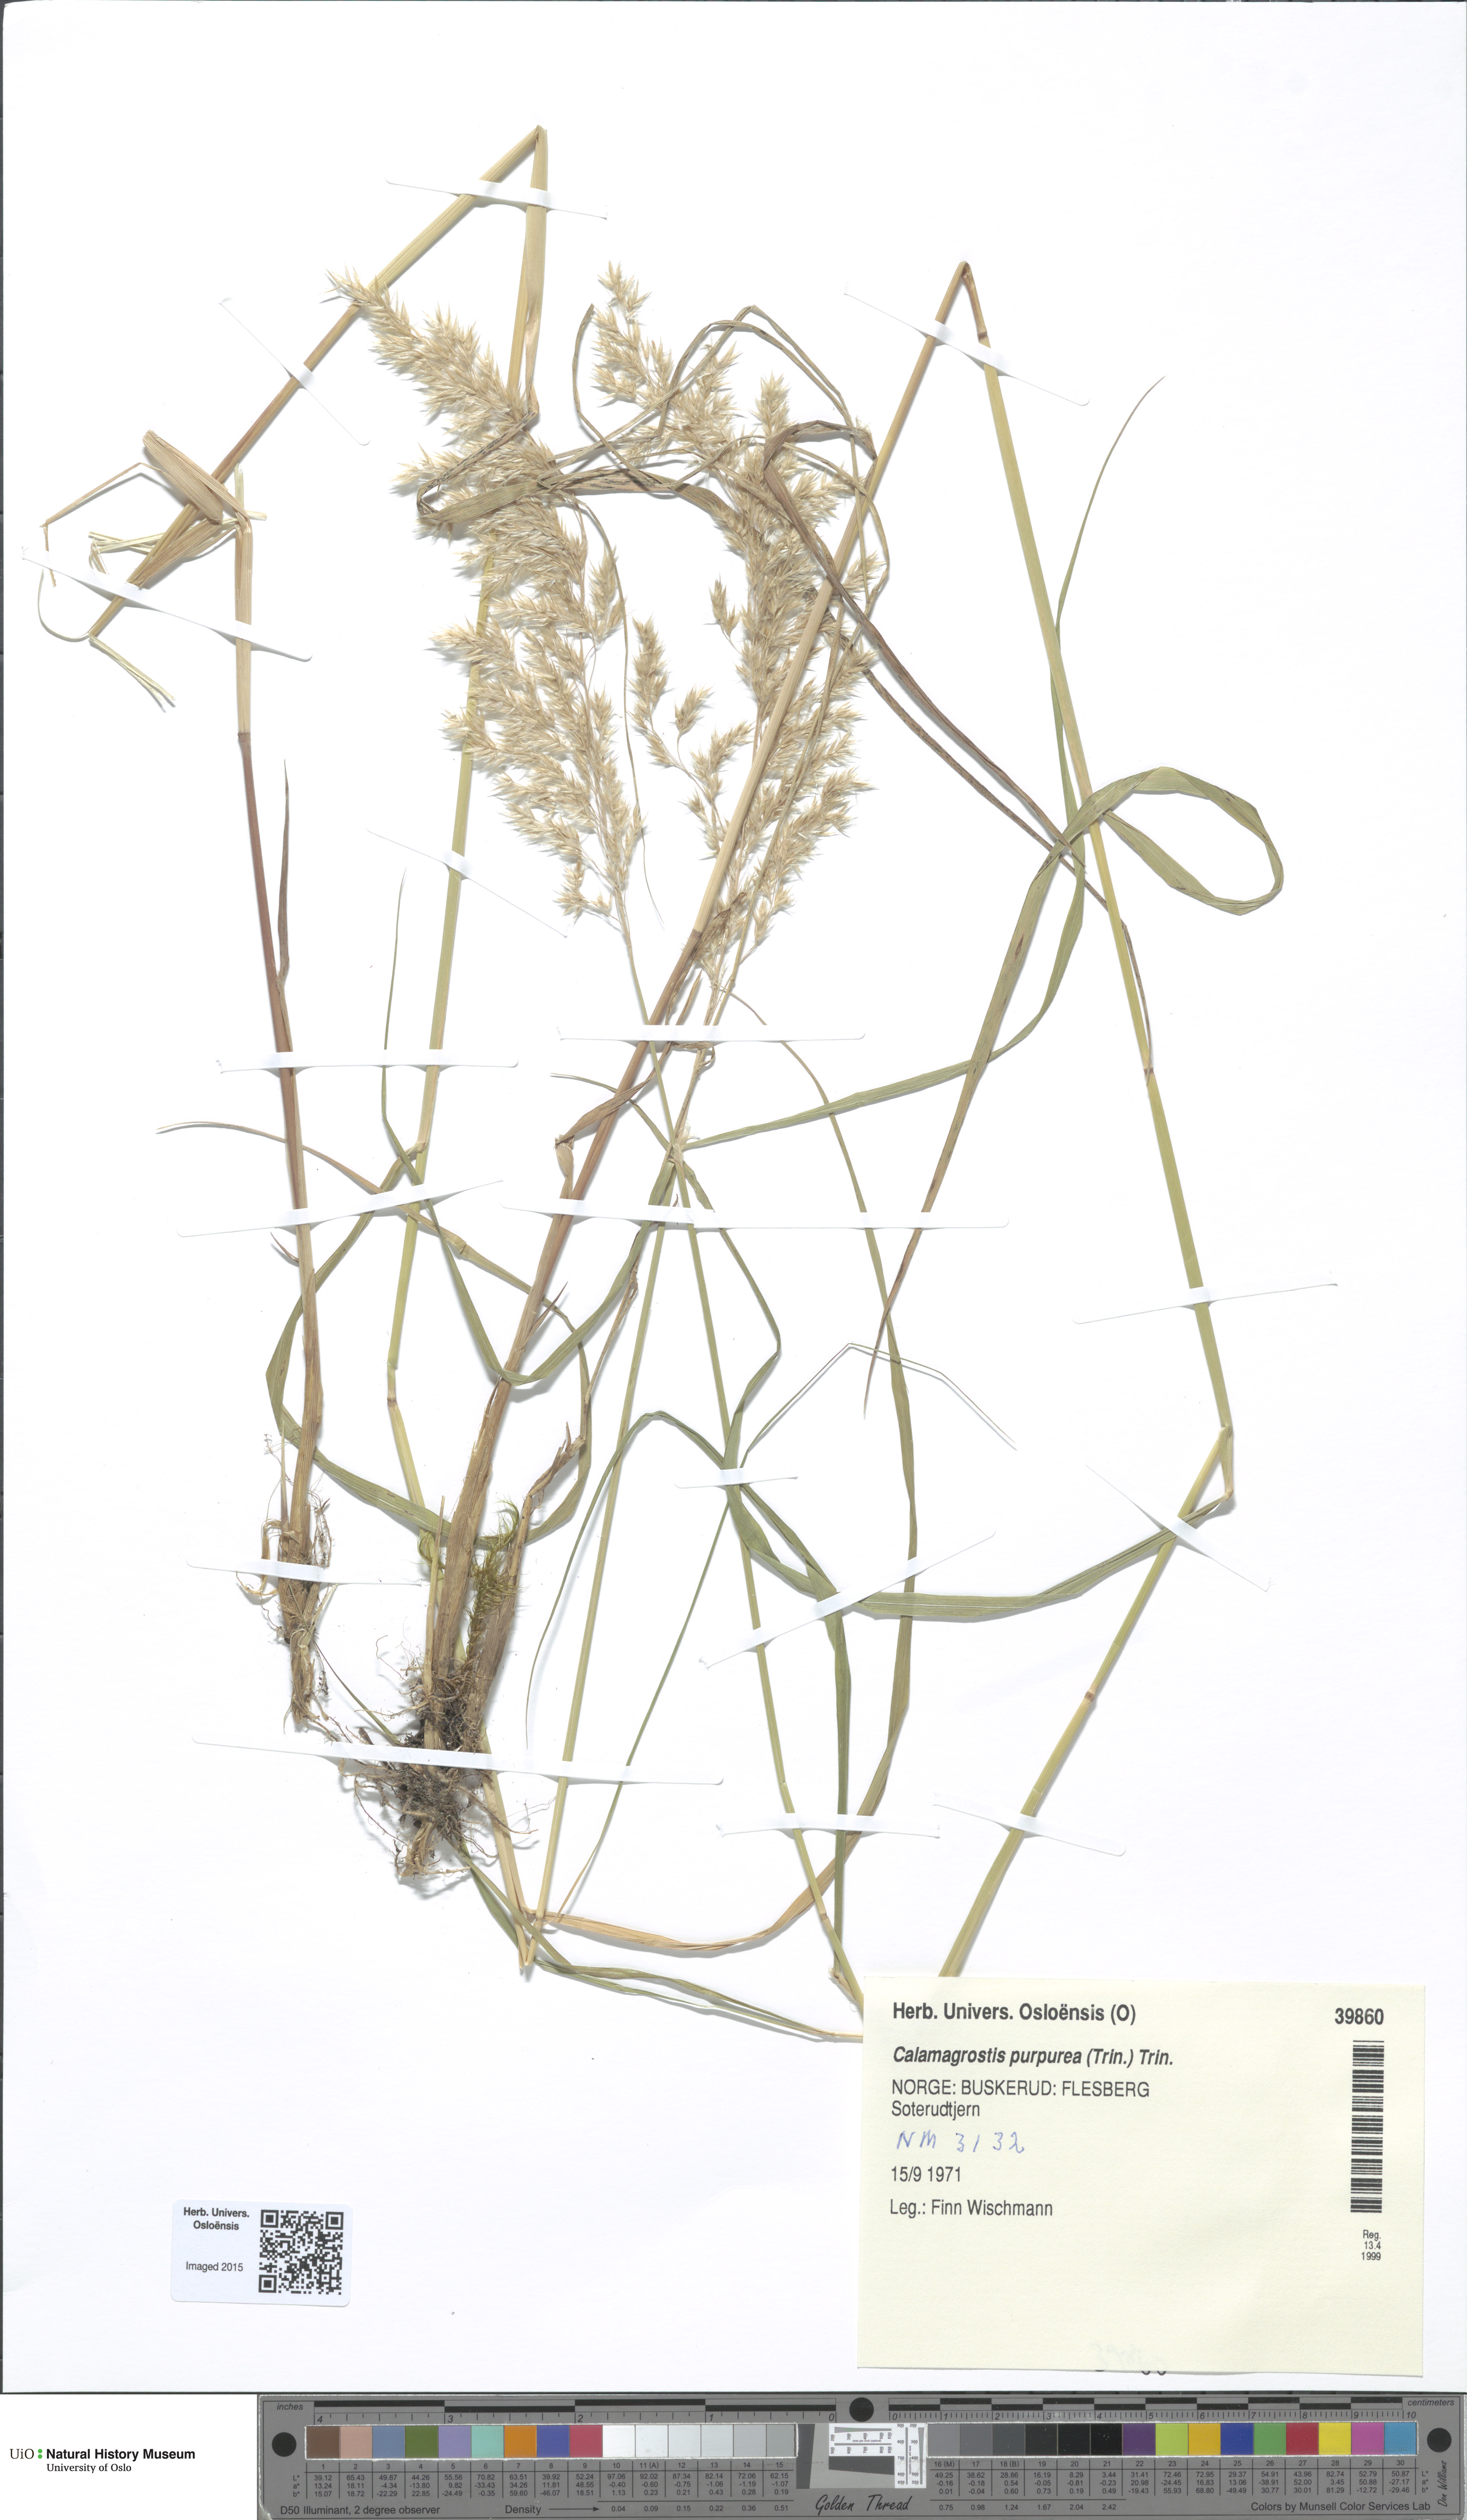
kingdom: Plantae
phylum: Tracheophyta
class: Liliopsida
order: Poales
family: Poaceae
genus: Calamagrostis
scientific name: Calamagrostis purpurea
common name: Scandinavian small-reed
